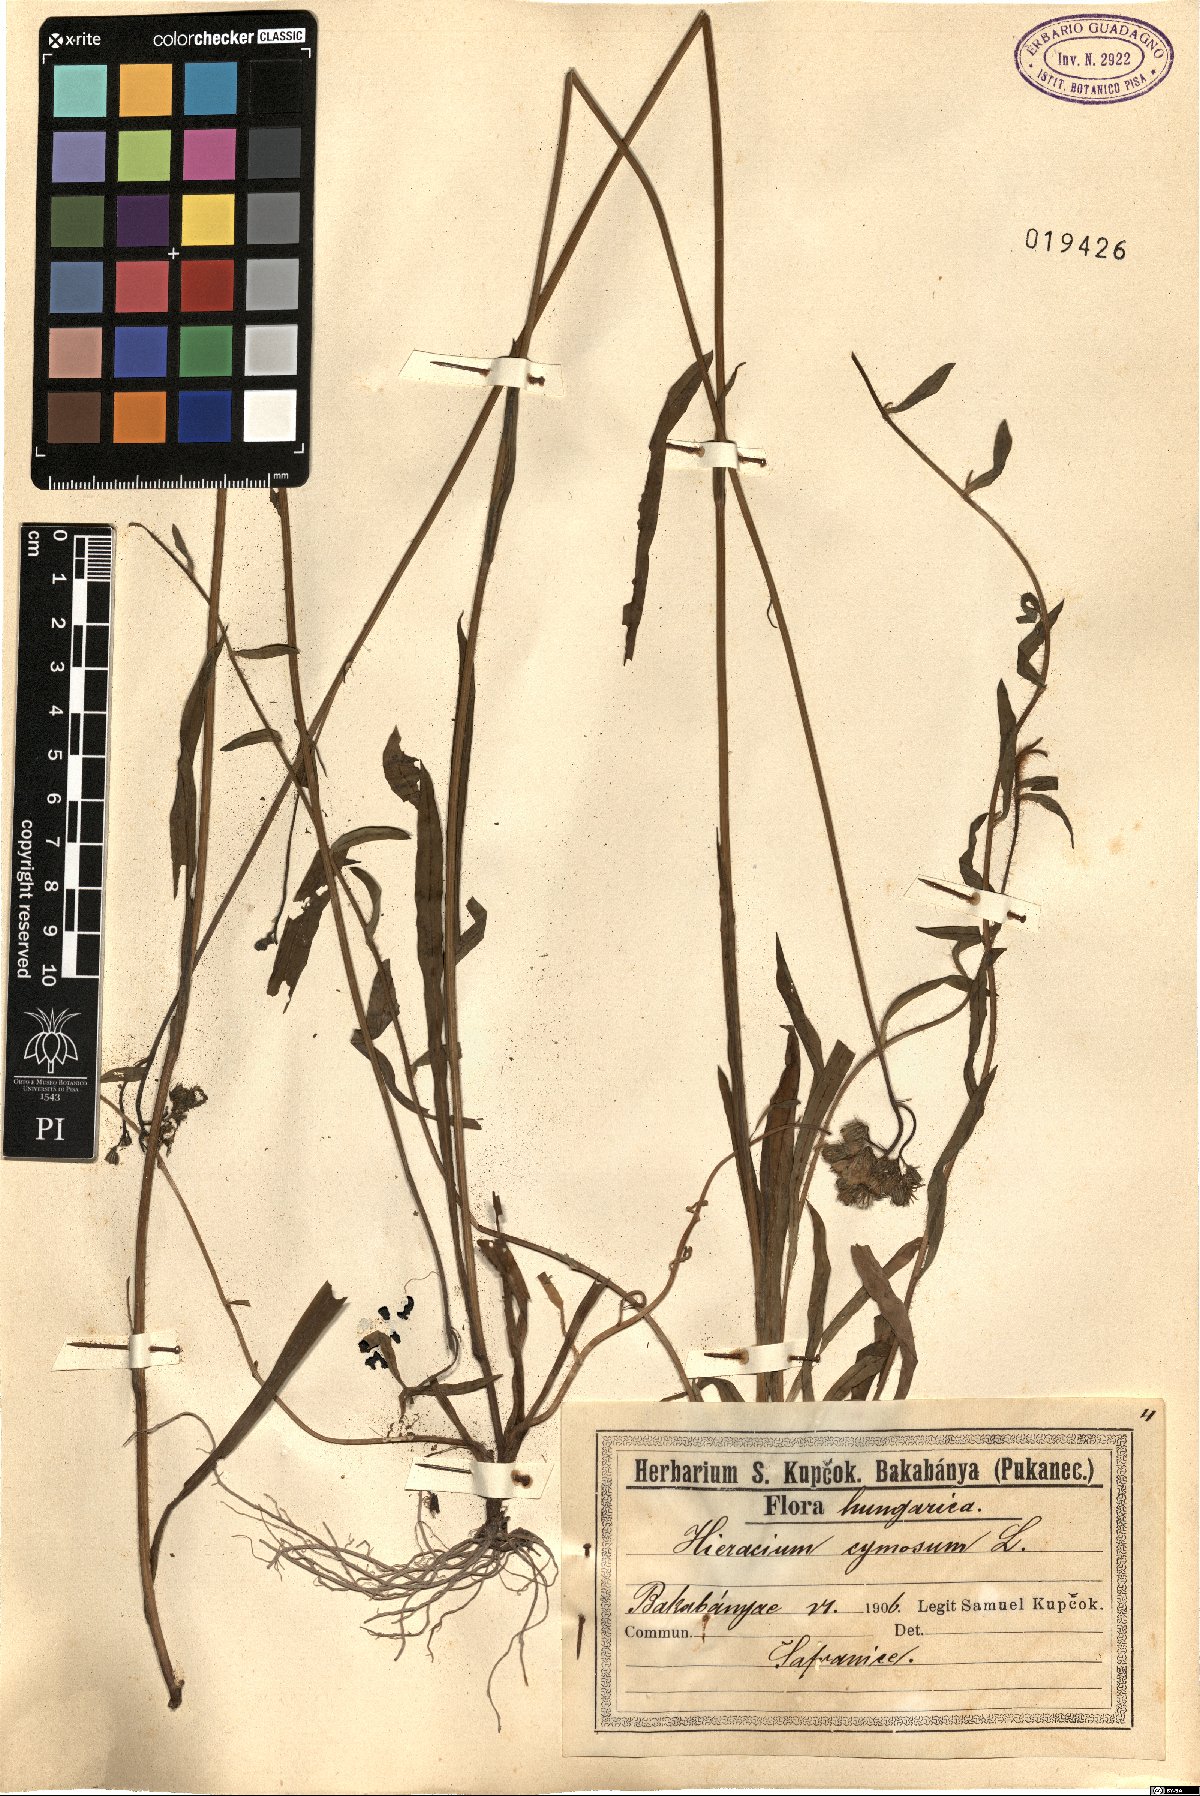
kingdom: Plantae
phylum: Tracheophyta
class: Magnoliopsida
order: Asterales
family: Asteraceae
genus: Pilosella
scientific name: Pilosella cymosa
